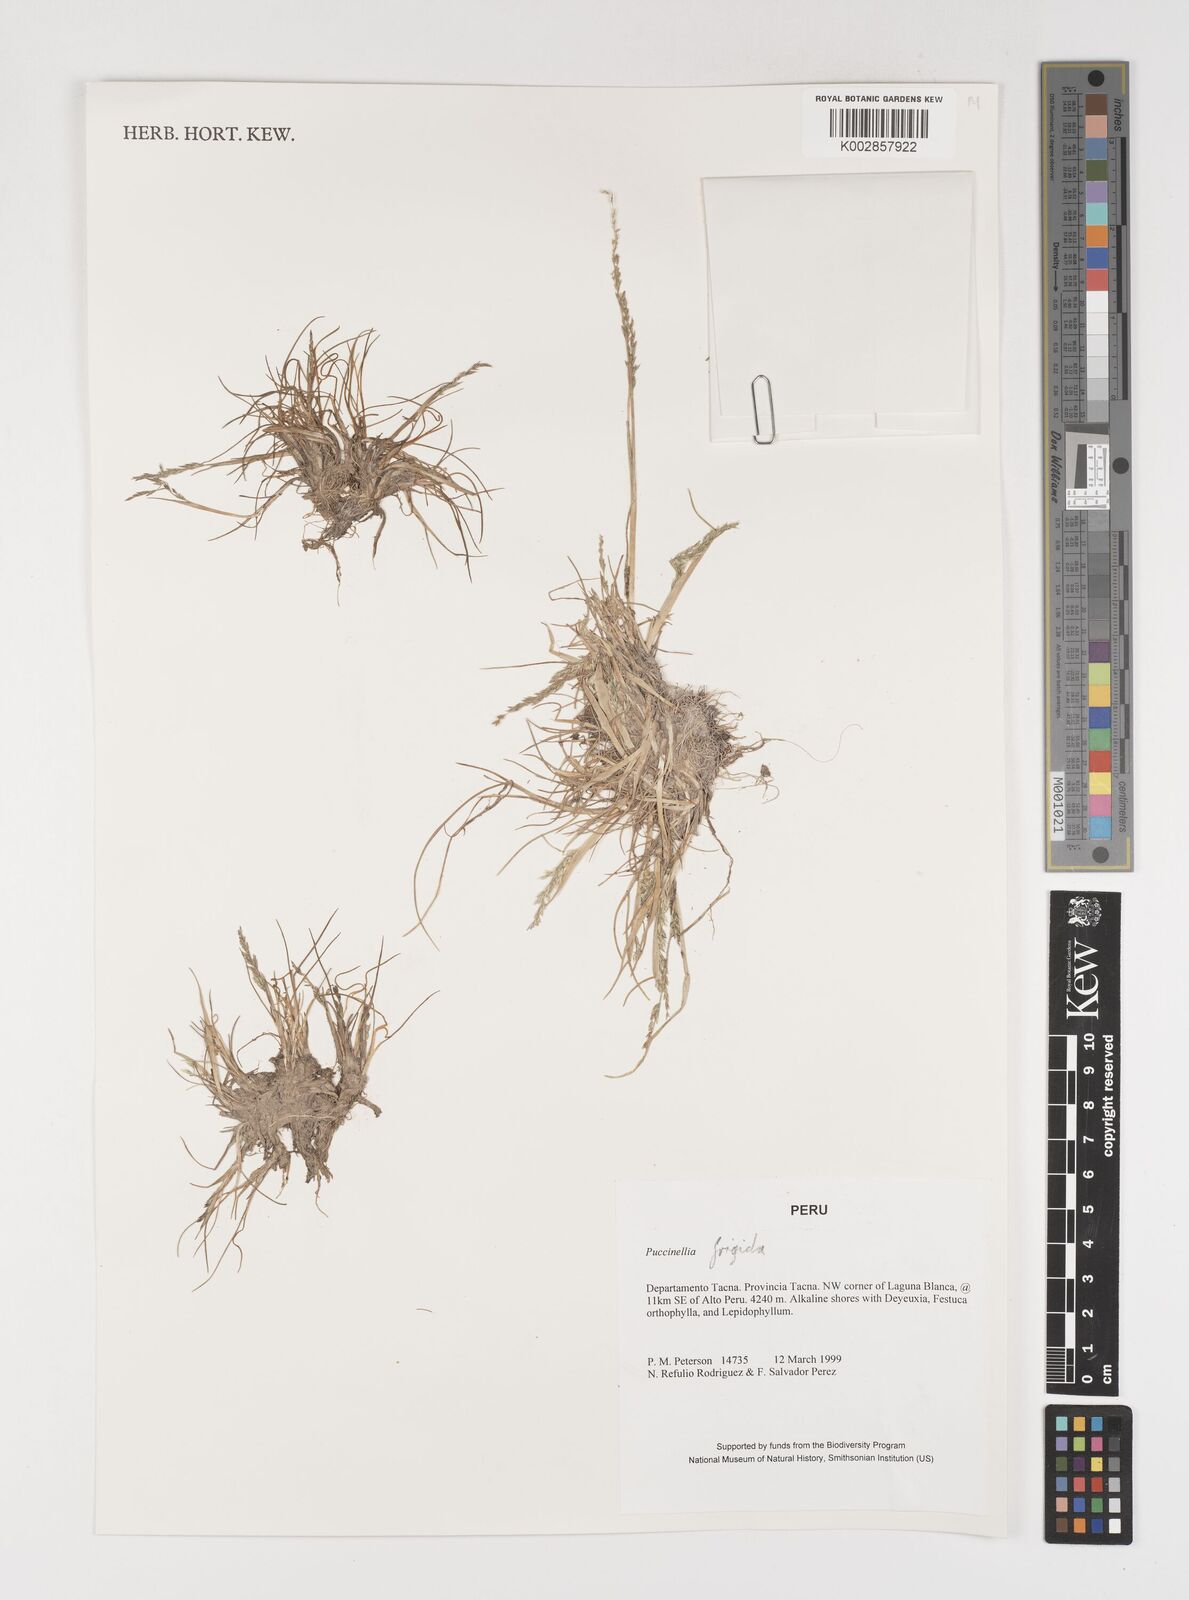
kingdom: Plantae
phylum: Tracheophyta
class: Liliopsida
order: Poales
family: Poaceae
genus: Puccinellia
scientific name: Puccinellia frigida
